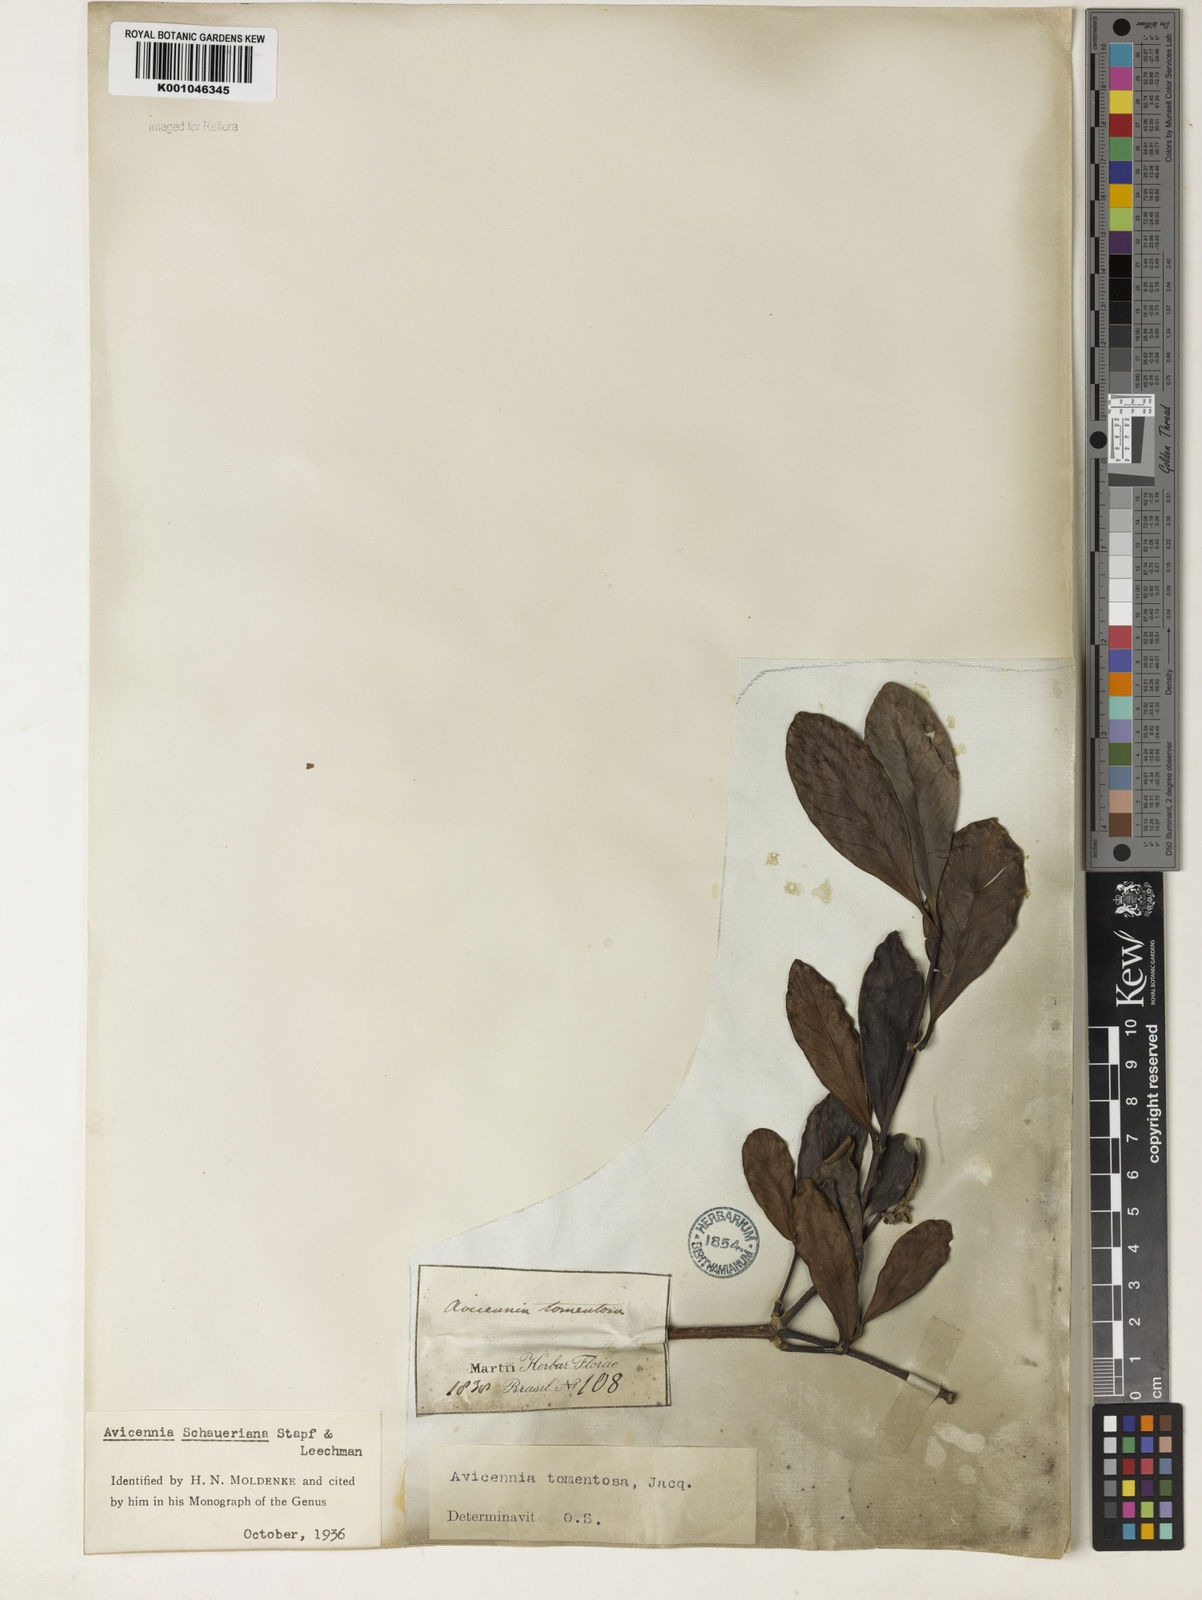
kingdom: Plantae
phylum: Tracheophyta
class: Magnoliopsida
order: Lamiales
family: Acanthaceae
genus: Avicennia
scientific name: Avicennia schaueriana
